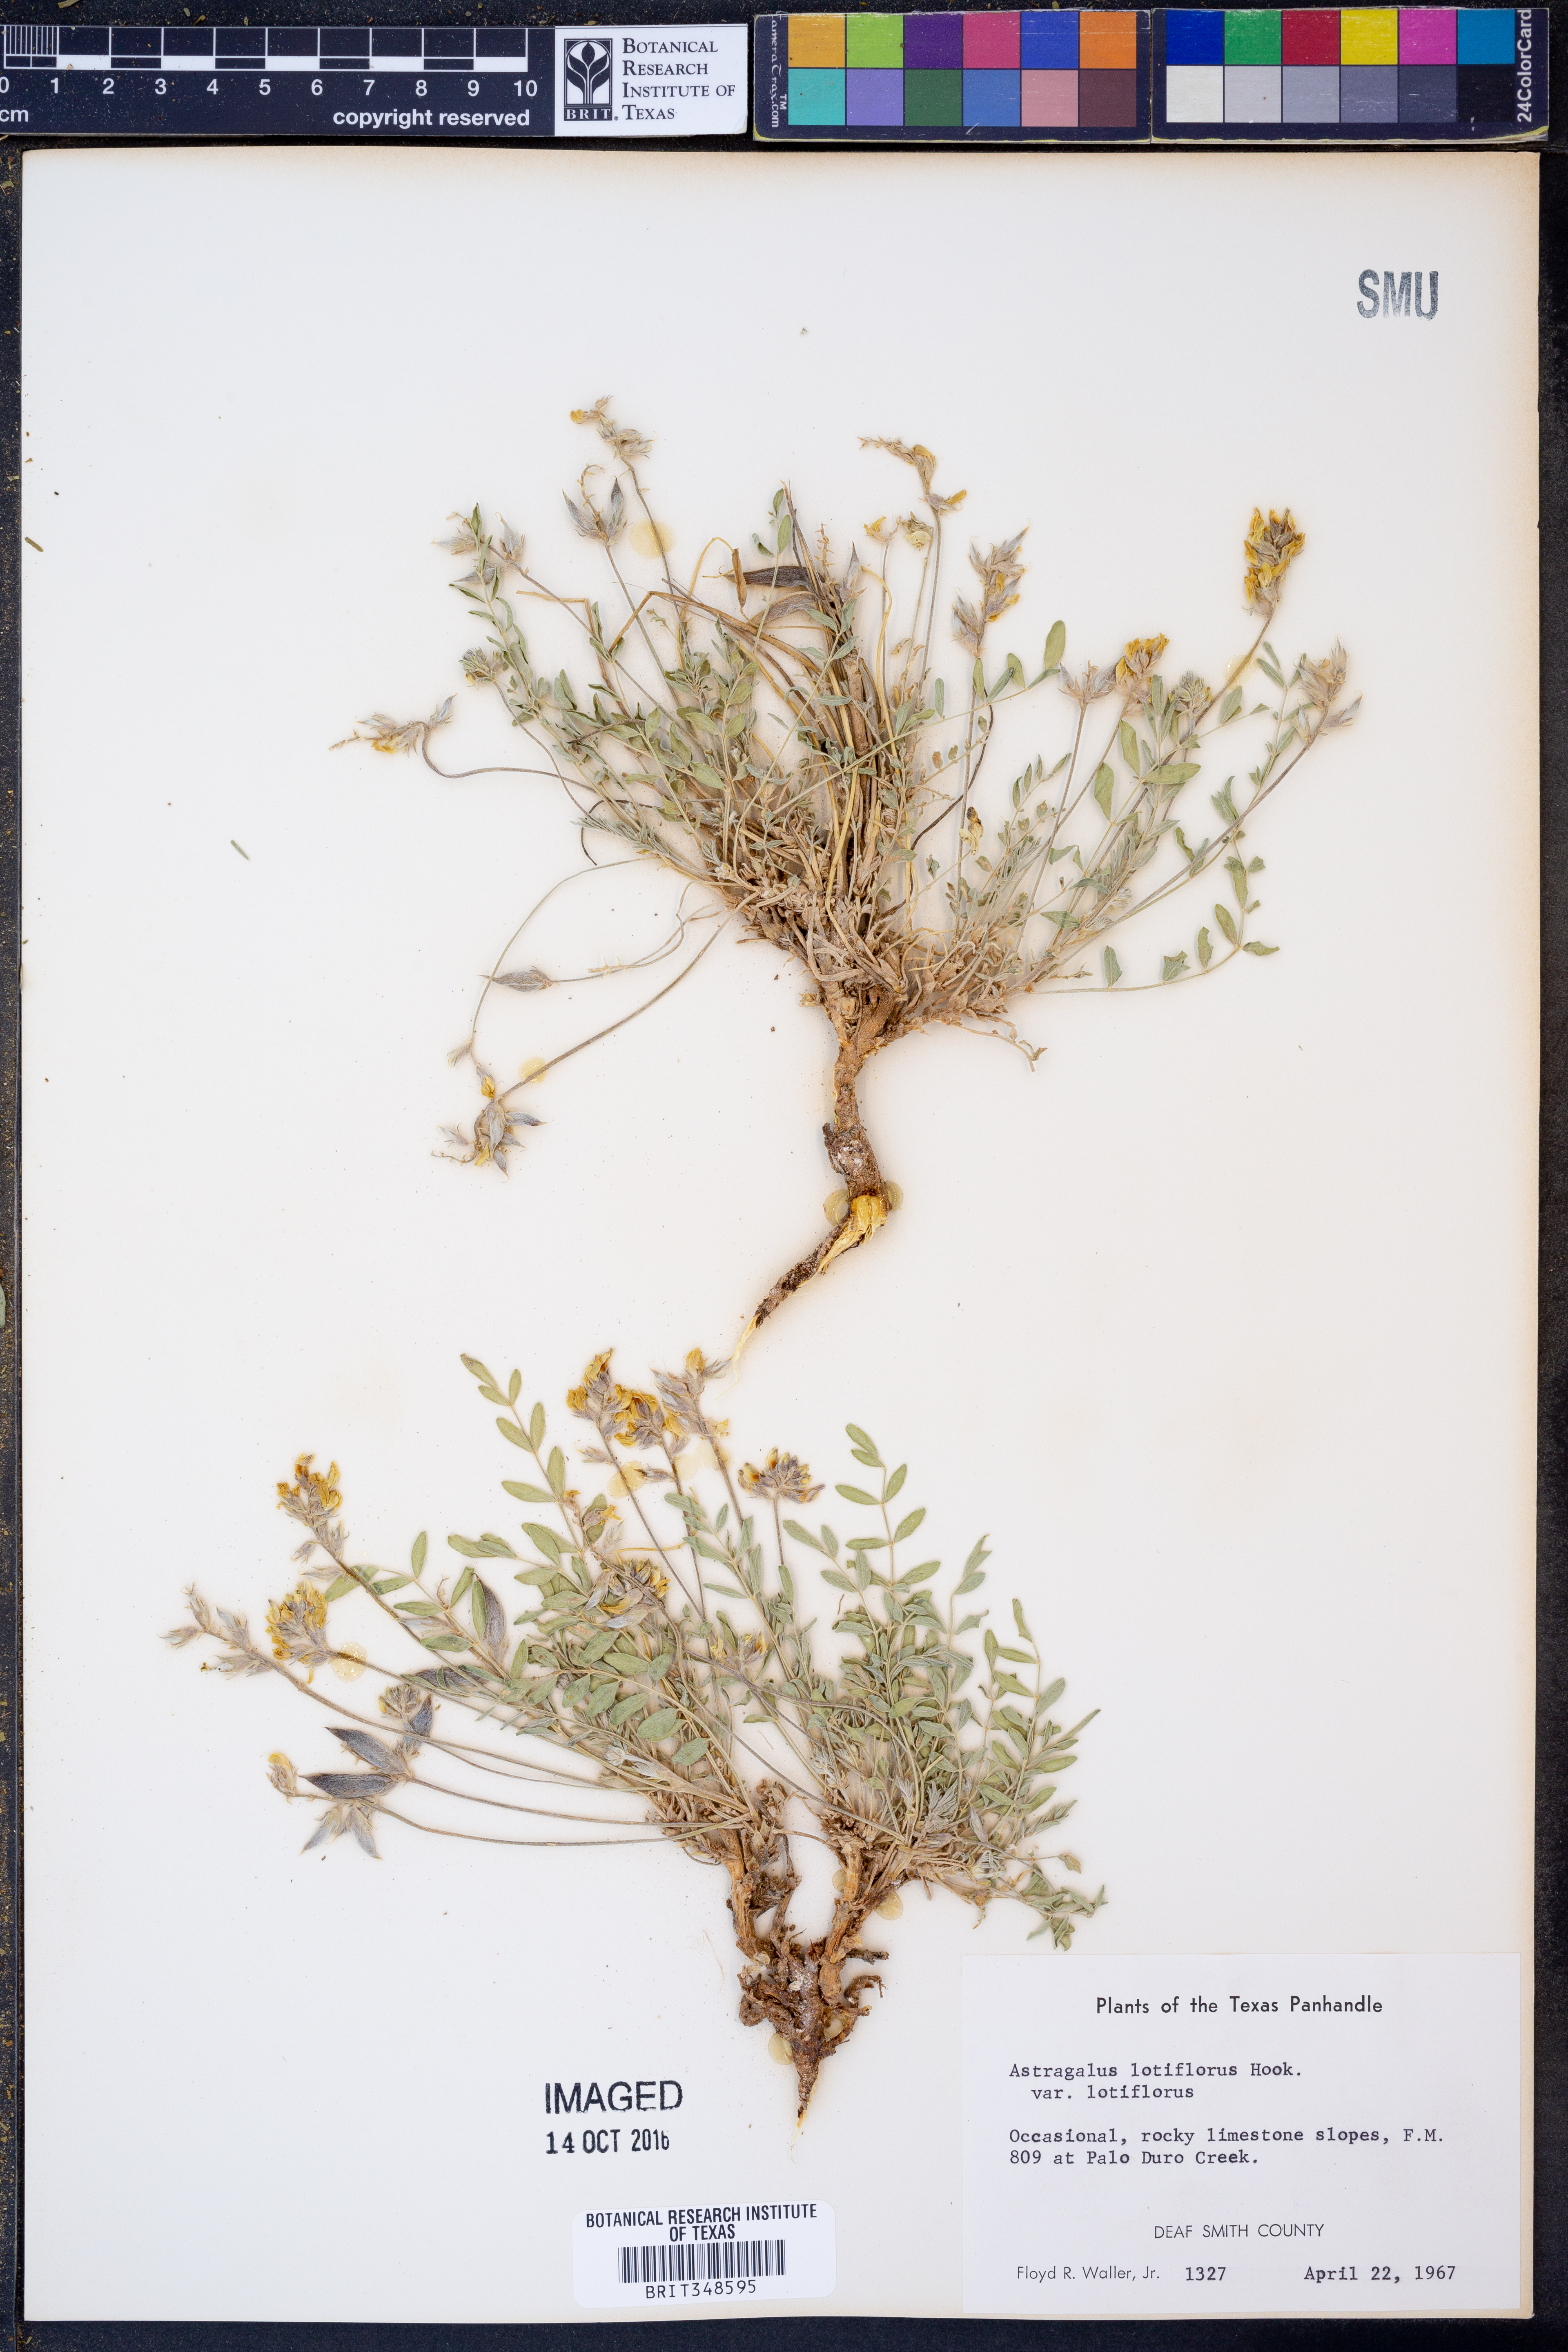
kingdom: Plantae
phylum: Tracheophyta
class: Magnoliopsida
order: Fabales
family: Fabaceae
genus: Astragalus
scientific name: Astragalus lotiflorus
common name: Lotus milk-vetch
